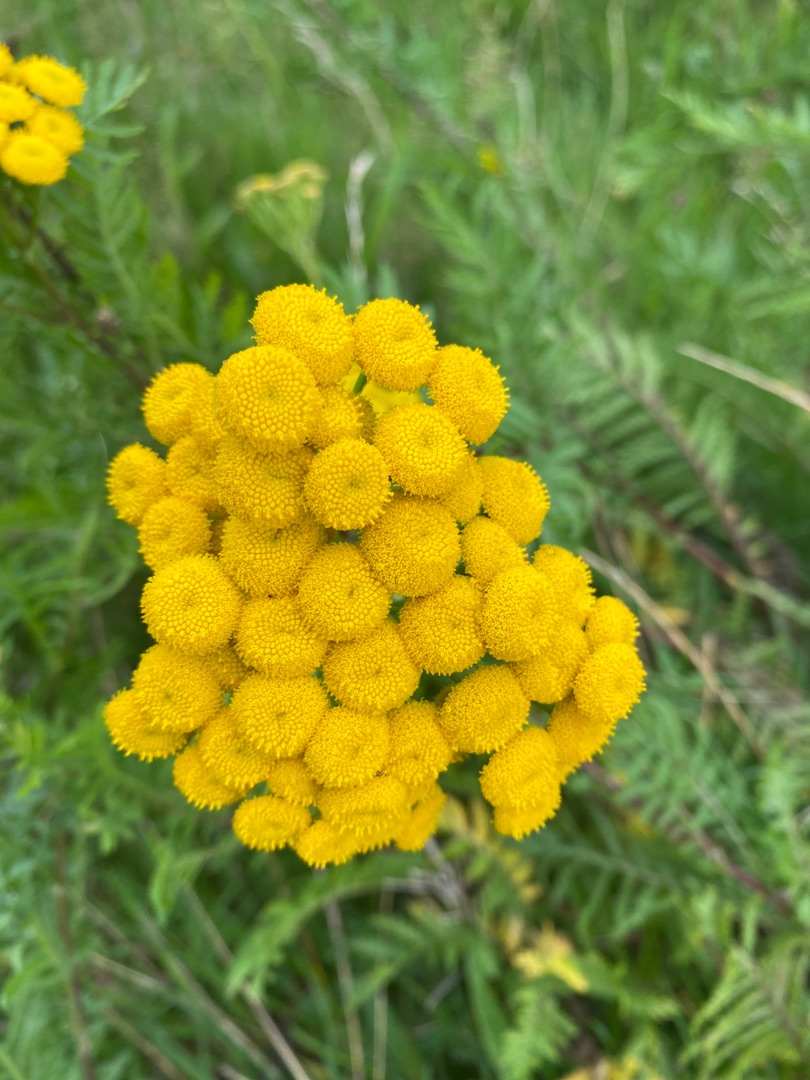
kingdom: Plantae
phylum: Tracheophyta
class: Magnoliopsida
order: Asterales
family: Asteraceae
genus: Tanacetum
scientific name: Tanacetum vulgare
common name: Rejnfan
